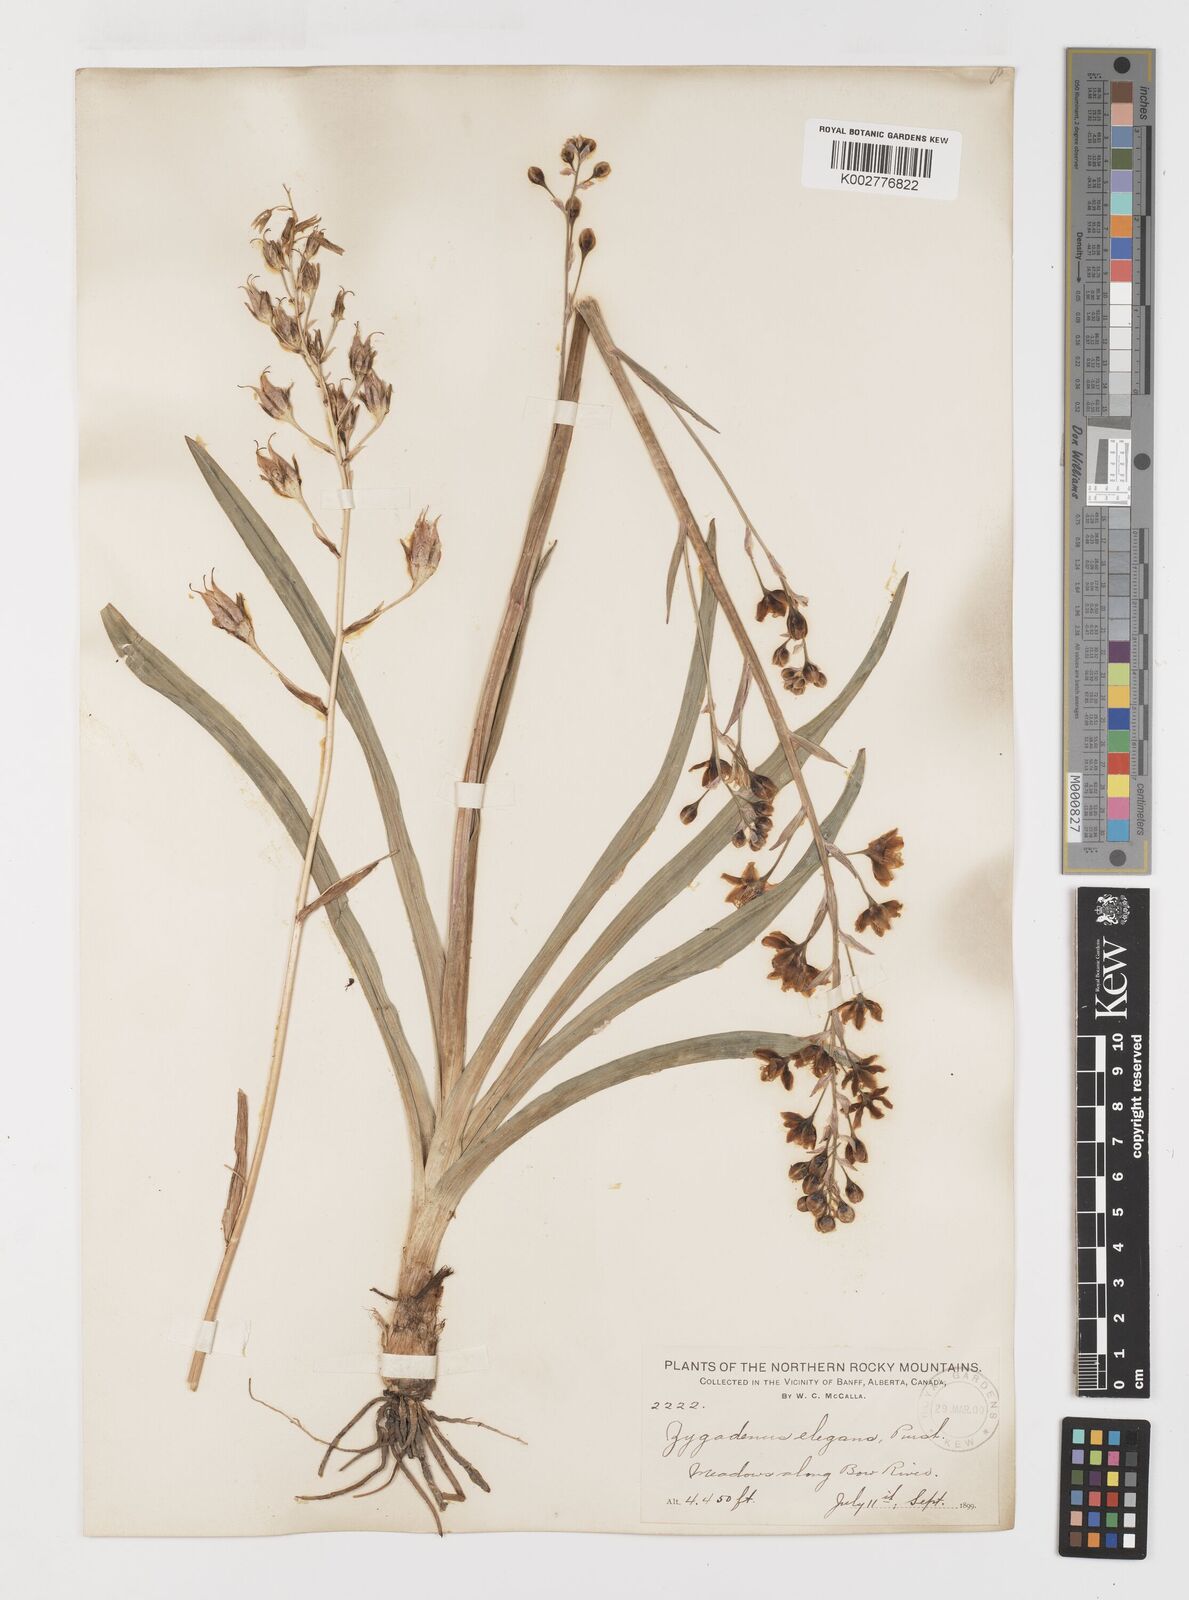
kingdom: Plantae
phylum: Tracheophyta
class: Liliopsida
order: Liliales
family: Melanthiaceae
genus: Anticlea
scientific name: Anticlea elegans
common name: Mountain death camas
